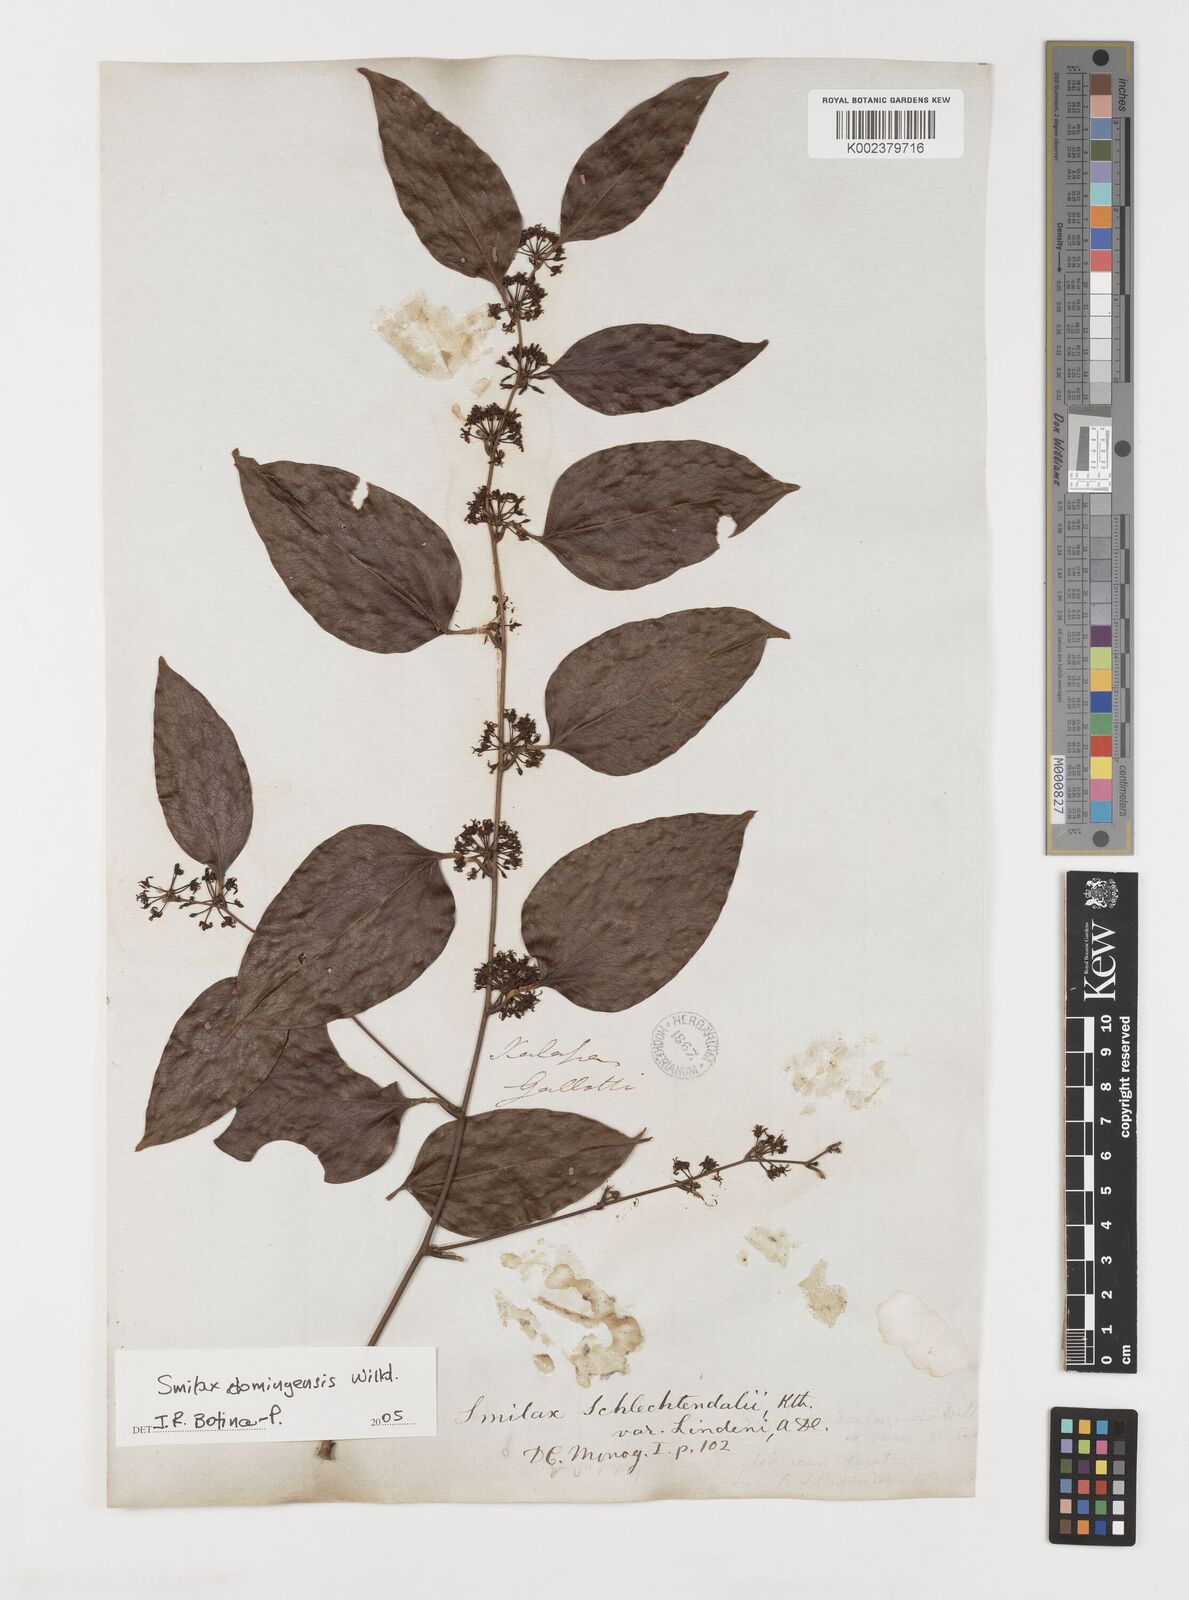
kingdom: Plantae
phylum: Tracheophyta
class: Liliopsida
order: Liliales
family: Smilacaceae
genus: Smilax
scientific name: Smilax domingensis
